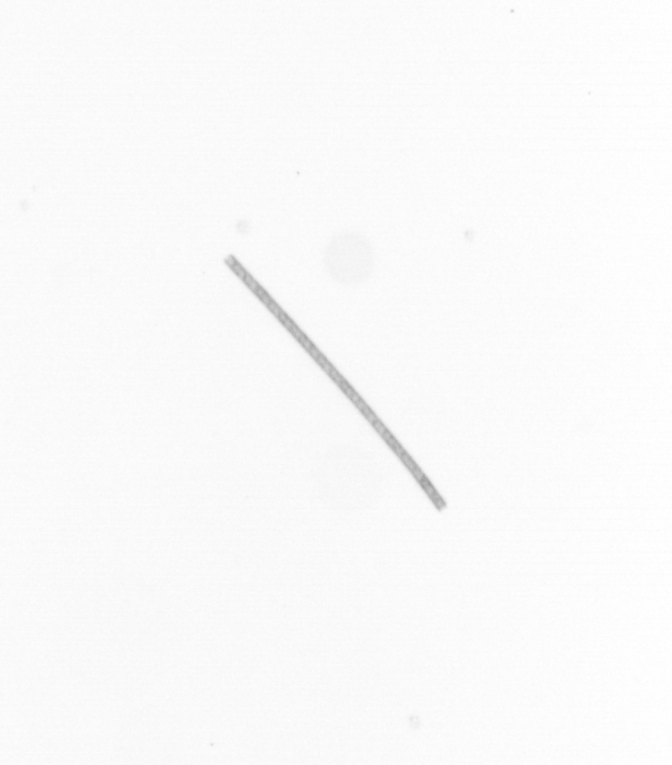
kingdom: Chromista
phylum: Ochrophyta
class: Bacillariophyceae
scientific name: Bacillariophyceae
